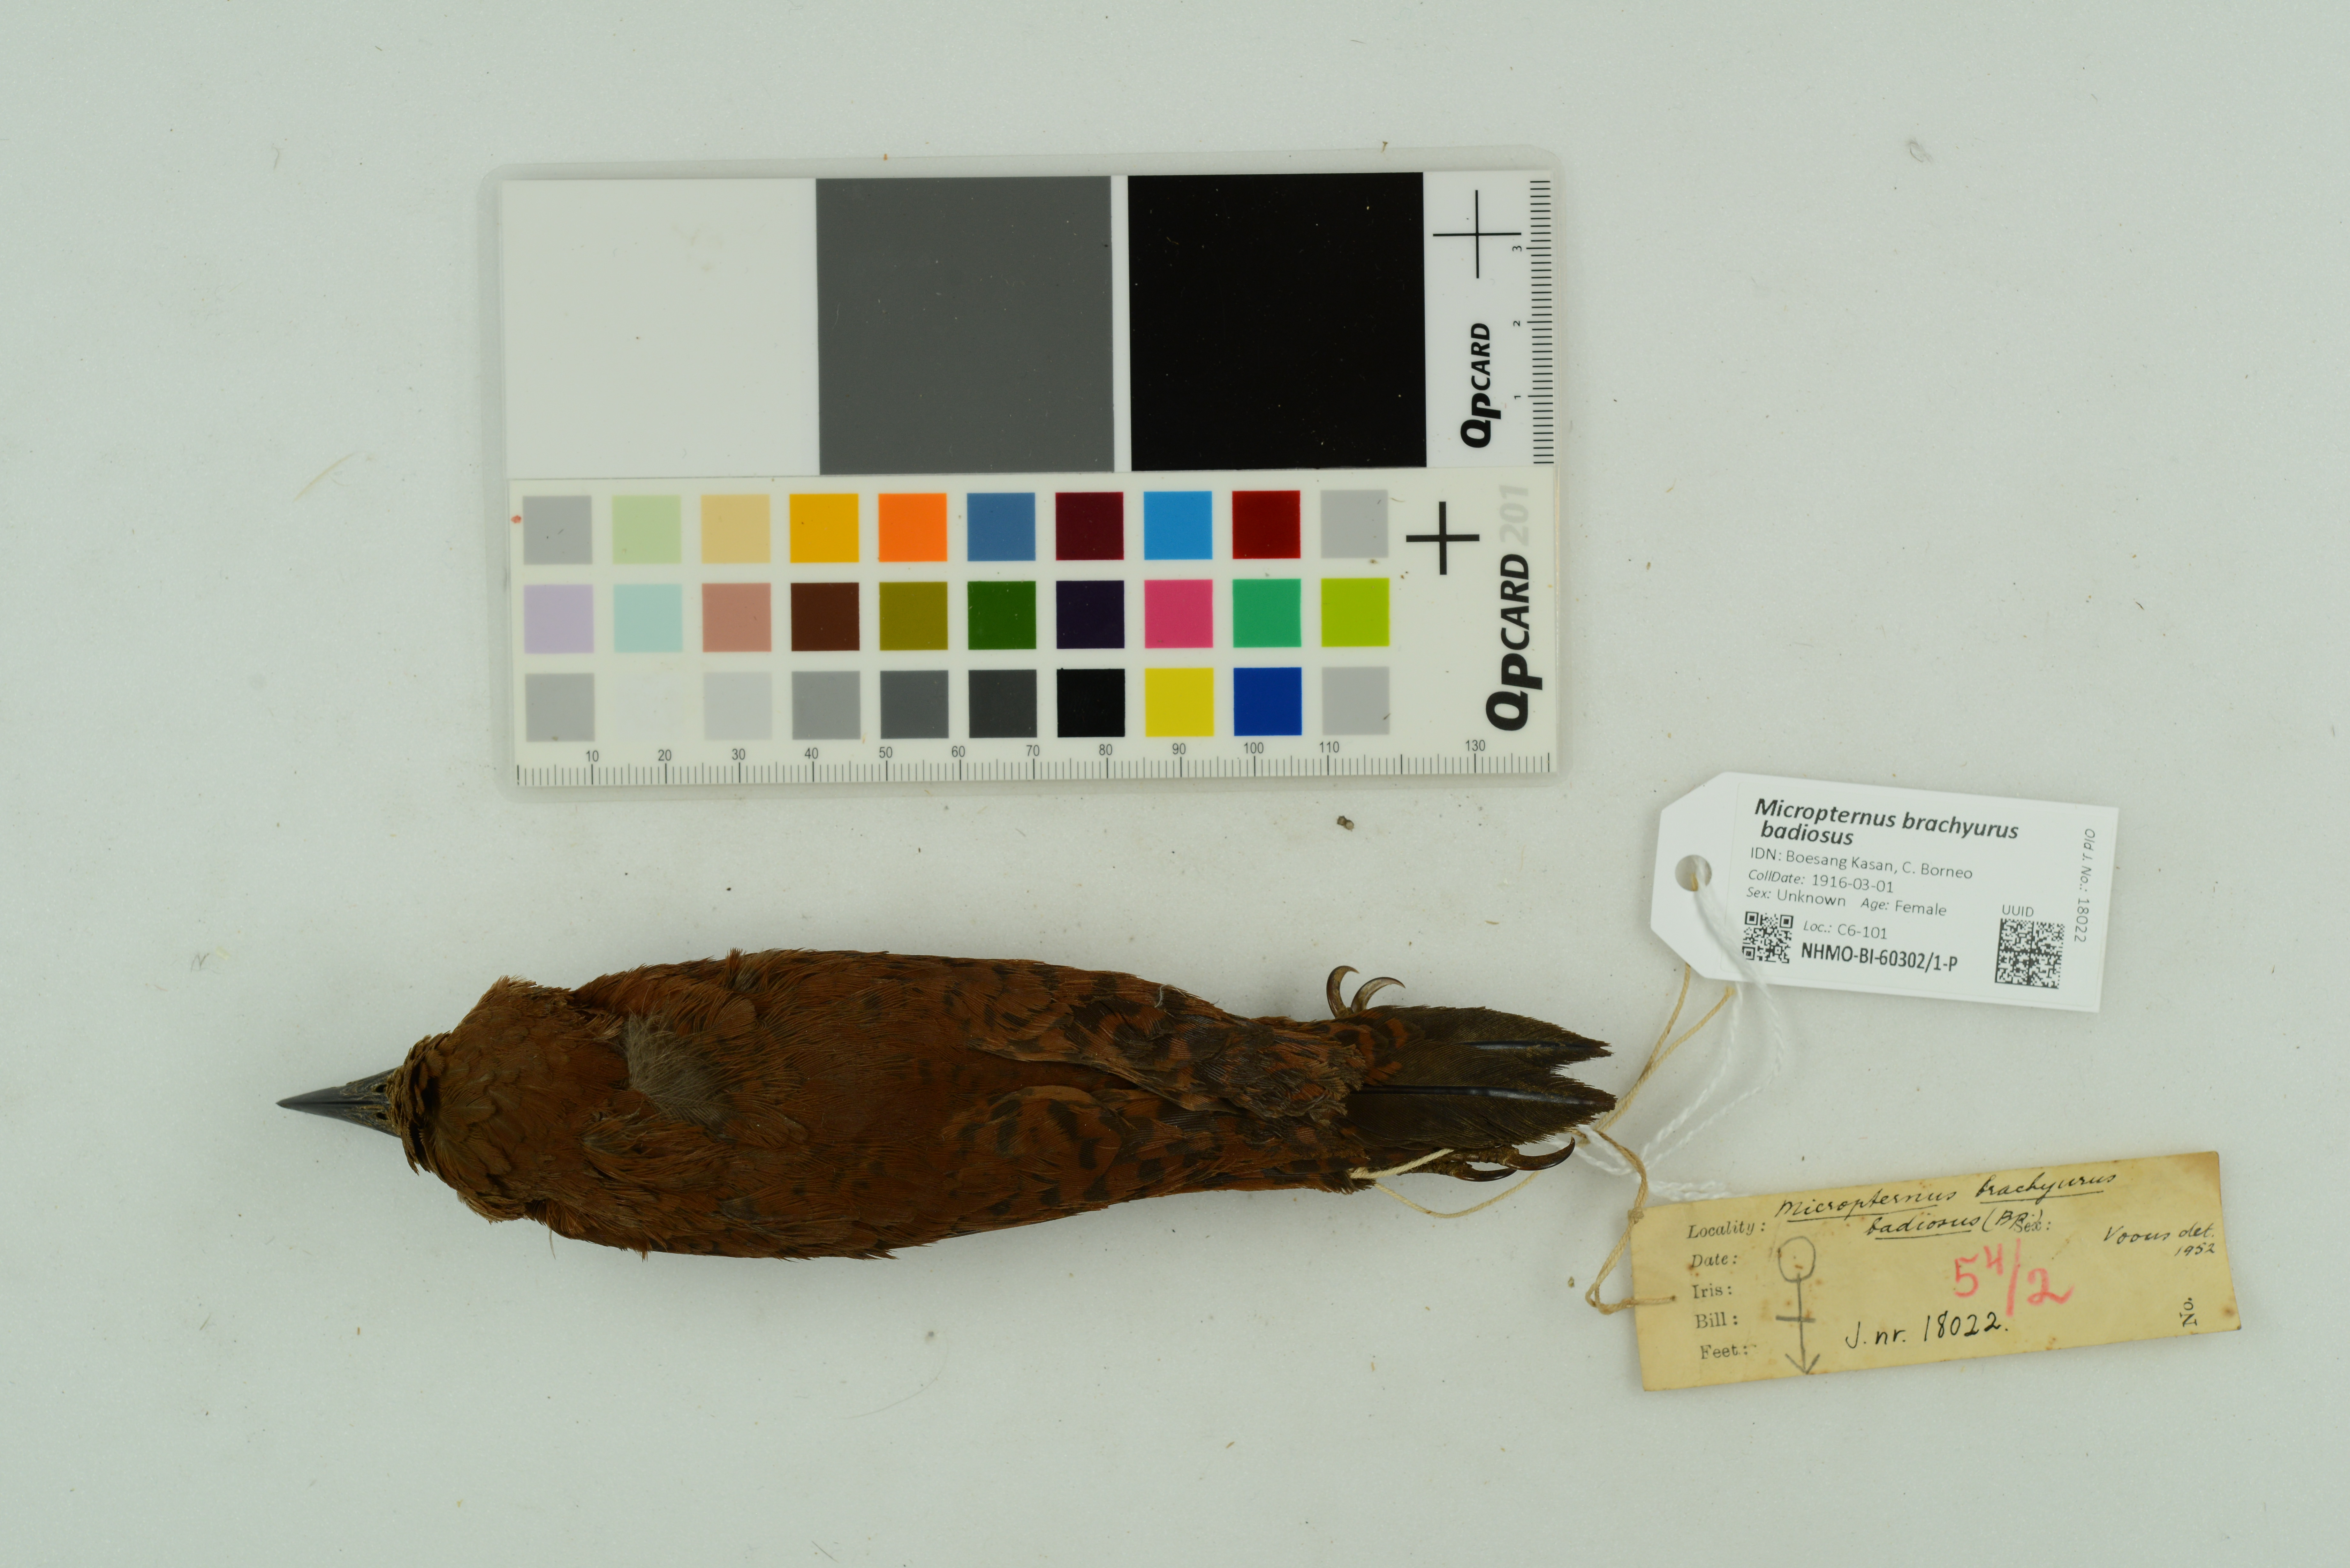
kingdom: Animalia
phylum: Chordata
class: Aves
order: Piciformes
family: Picidae
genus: Micropternus
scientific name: Micropternus brachyurus
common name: Rufous woodpecker
